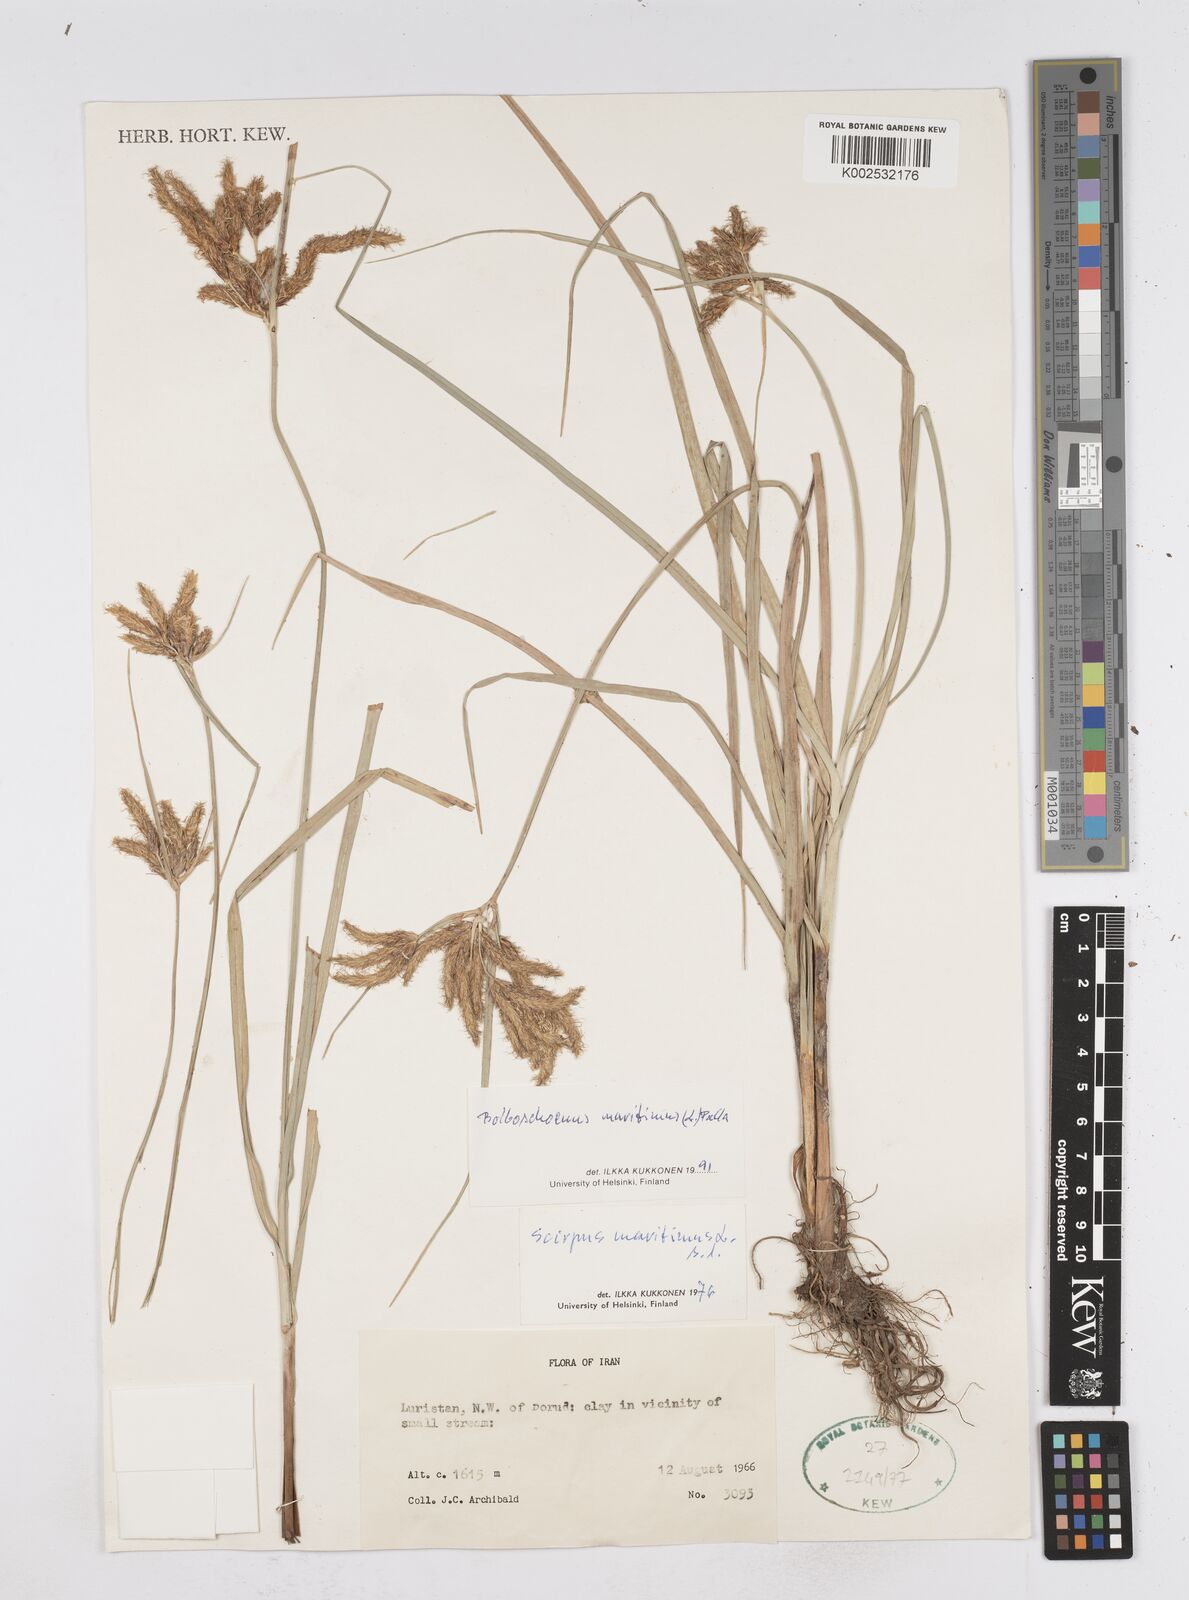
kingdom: Plantae
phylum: Tracheophyta
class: Liliopsida
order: Poales
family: Cyperaceae
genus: Bolboschoenus
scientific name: Bolboschoenus maritimus
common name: Sea club-rush
